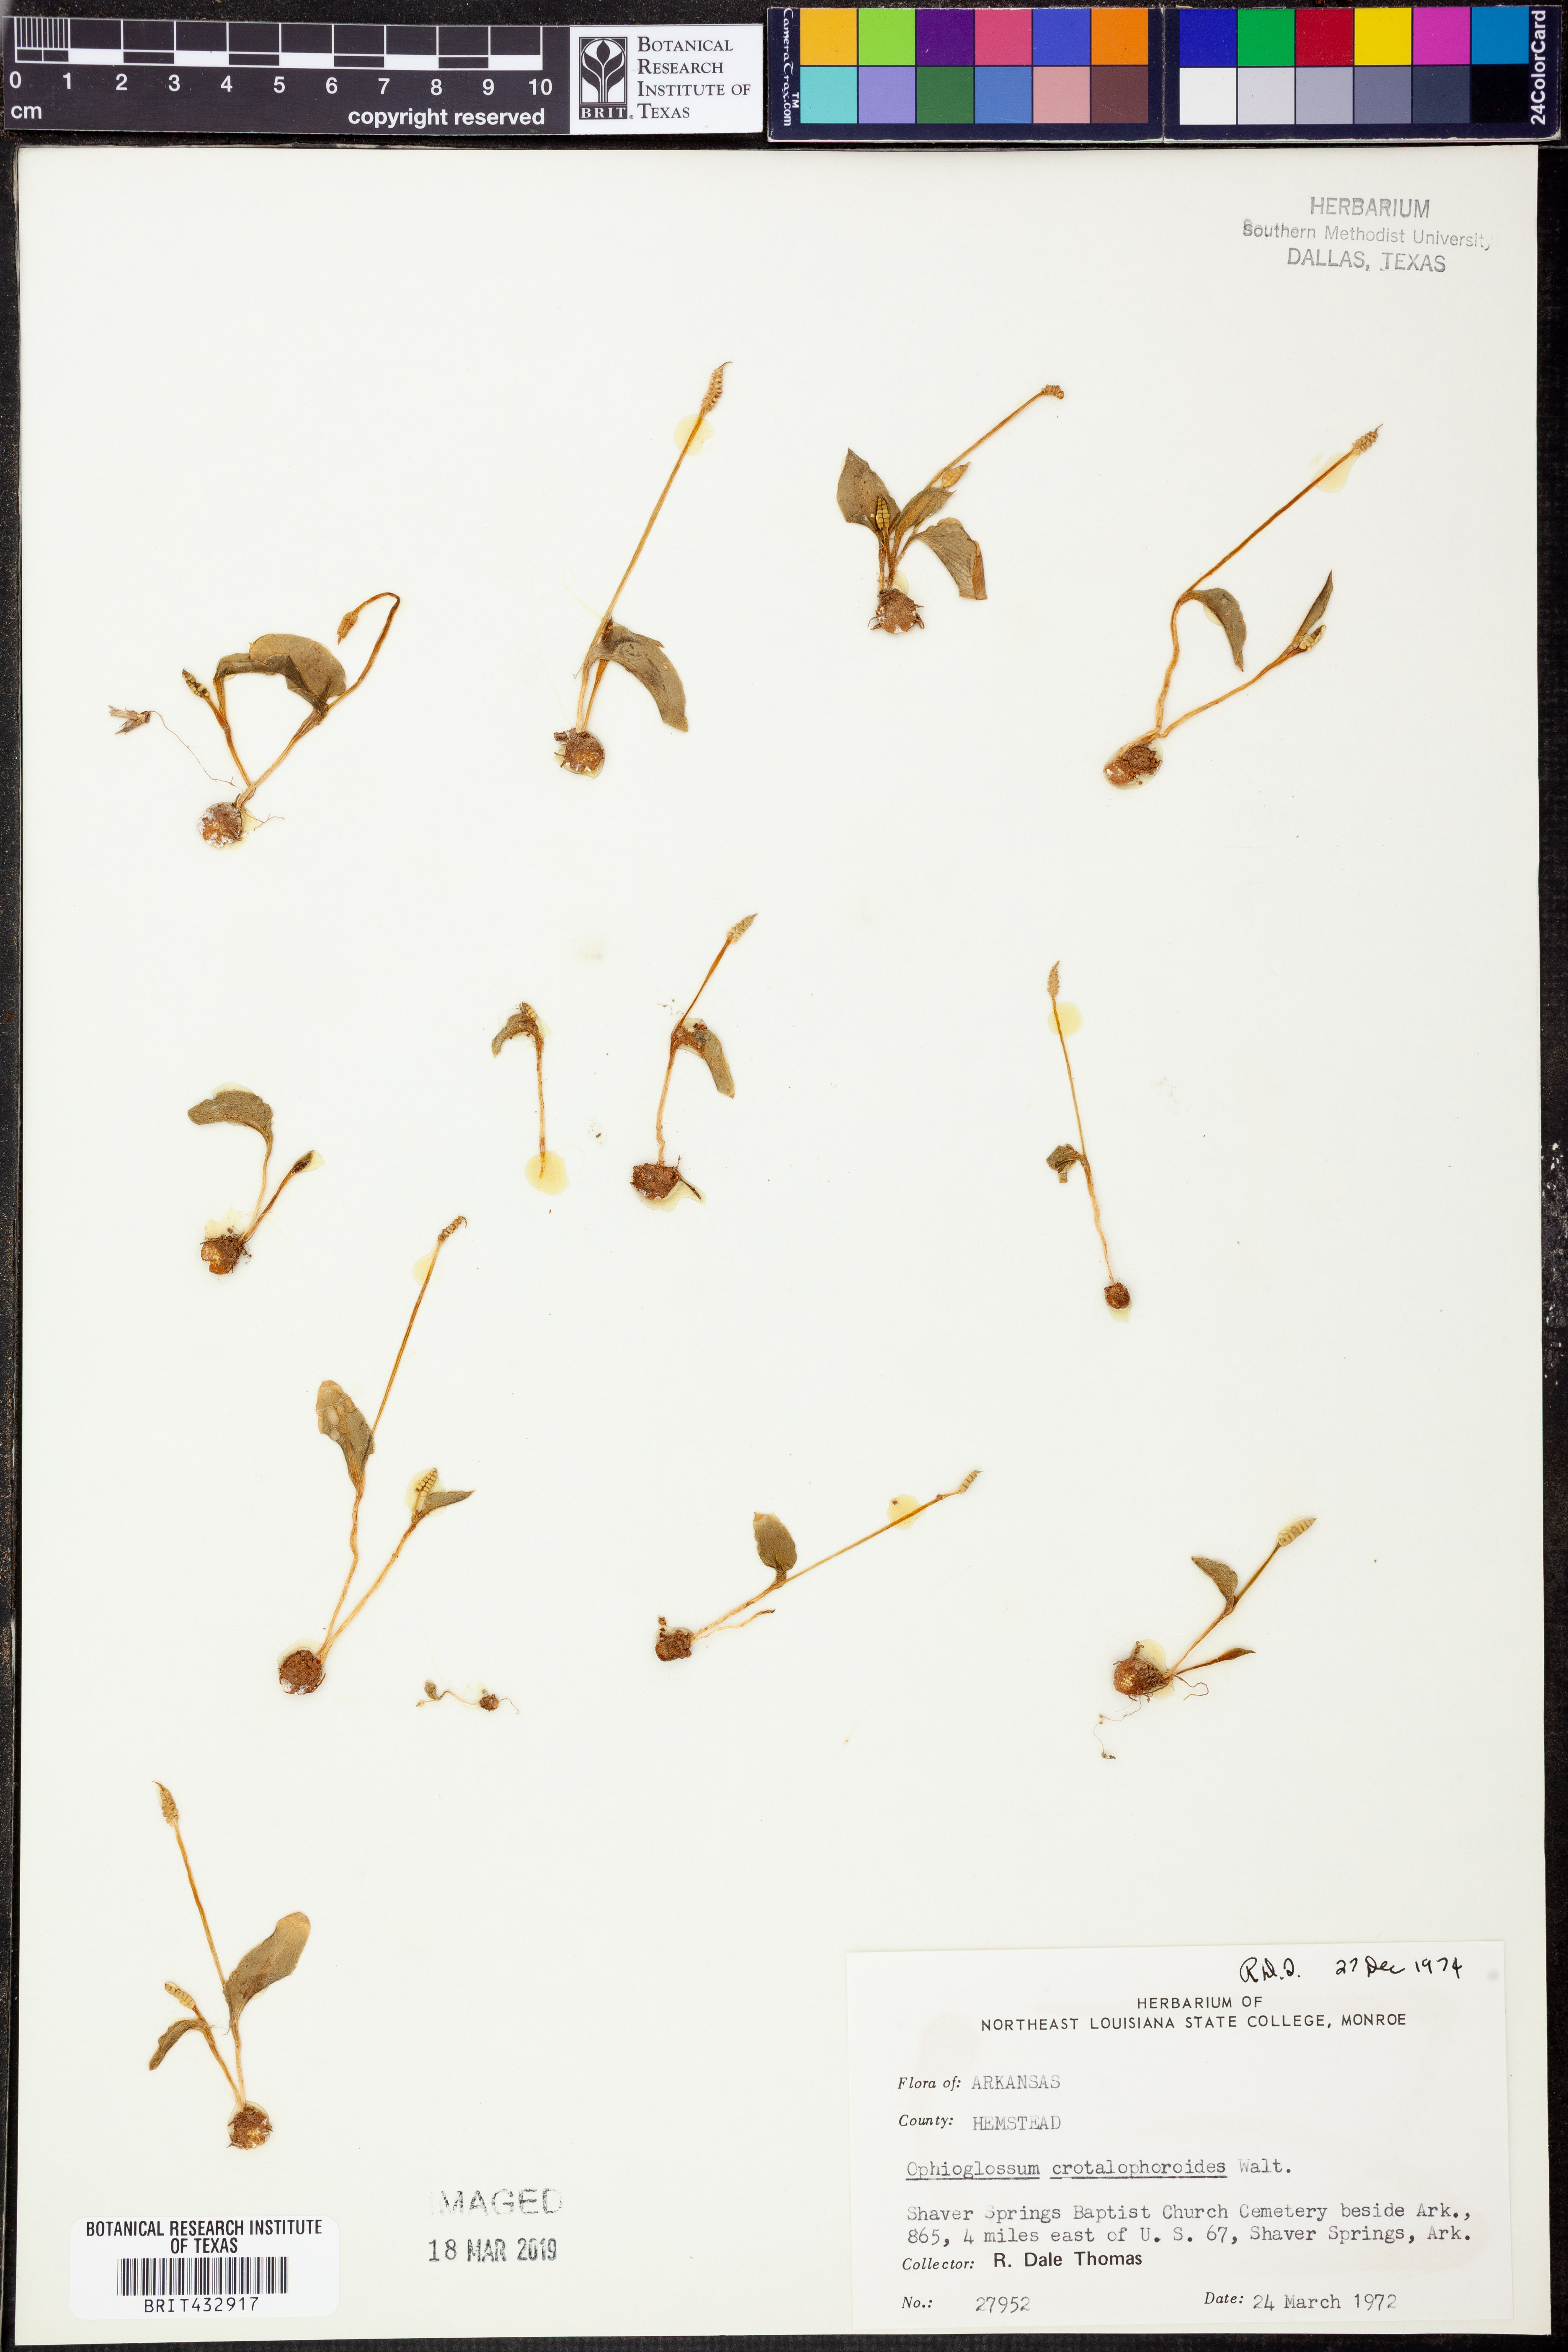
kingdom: Plantae
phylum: Tracheophyta
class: Polypodiopsida
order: Ophioglossales
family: Ophioglossaceae
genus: Ophioglossum
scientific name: Ophioglossum crotalophoroides
